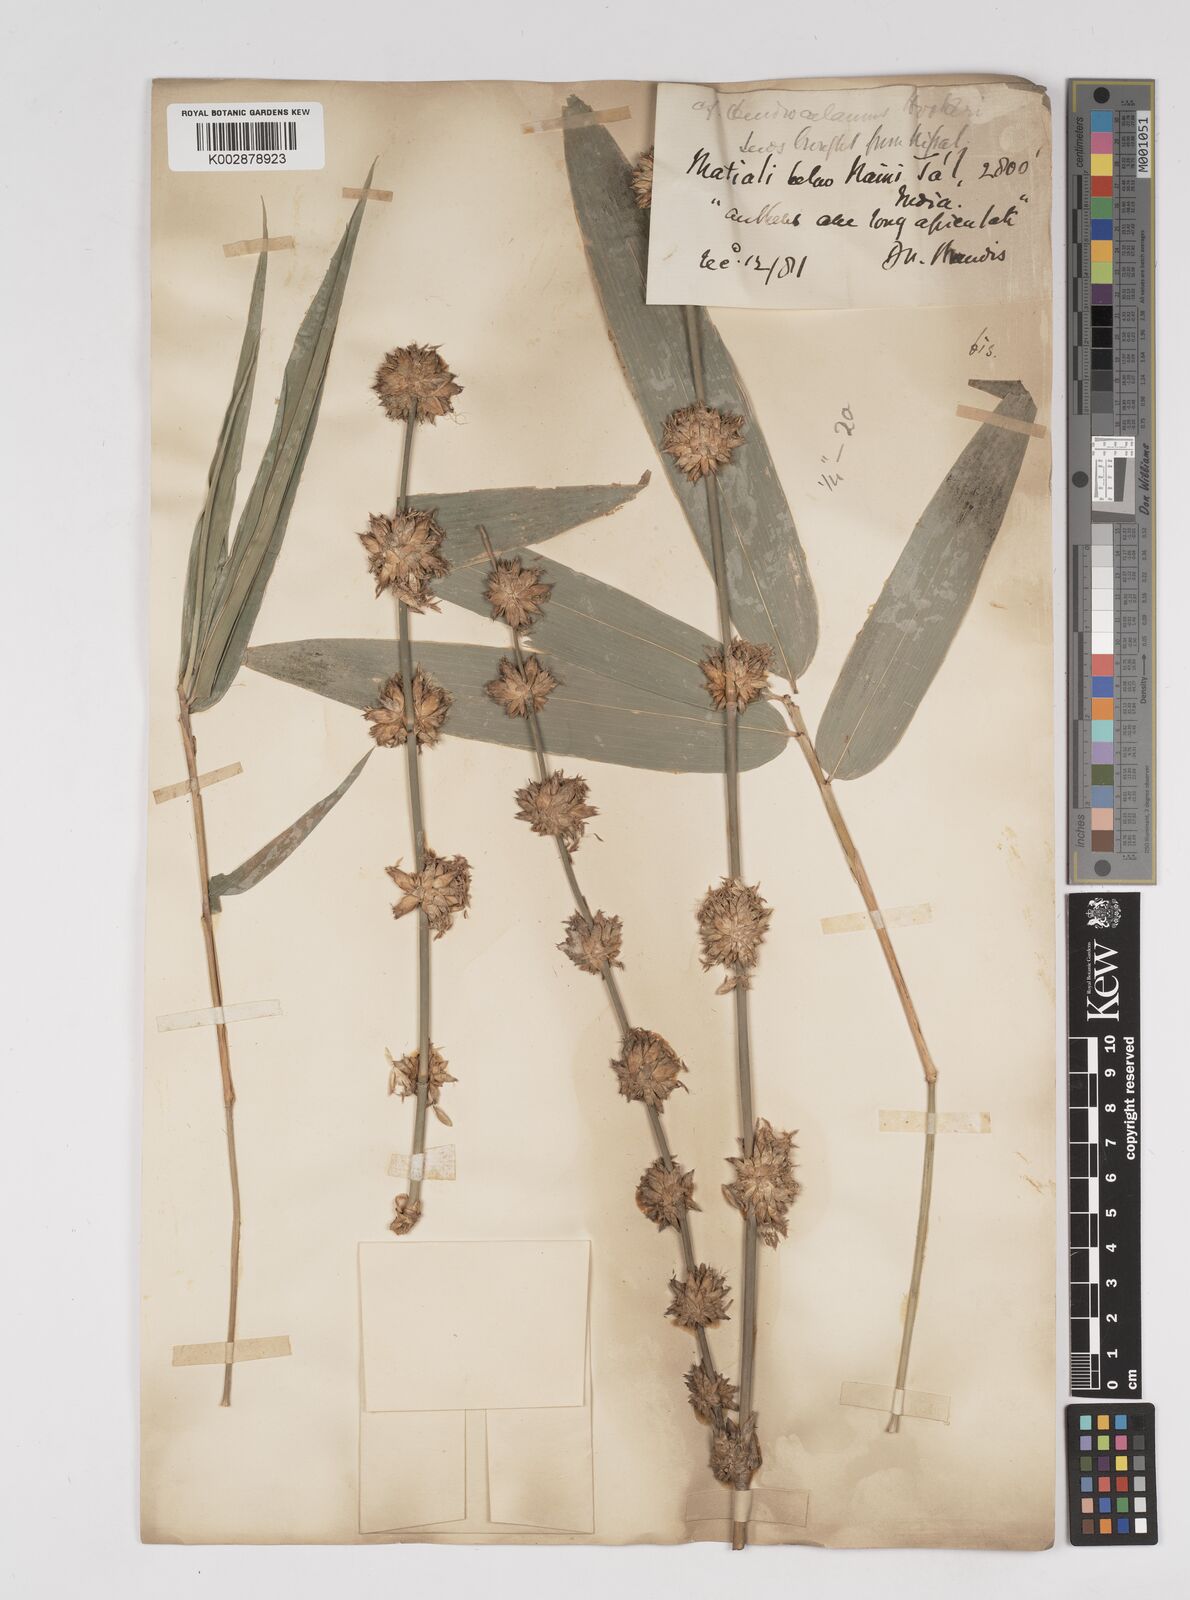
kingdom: Plantae
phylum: Tracheophyta
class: Liliopsida
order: Poales
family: Poaceae
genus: Dendrocalamus
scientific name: Dendrocalamus hookeri
